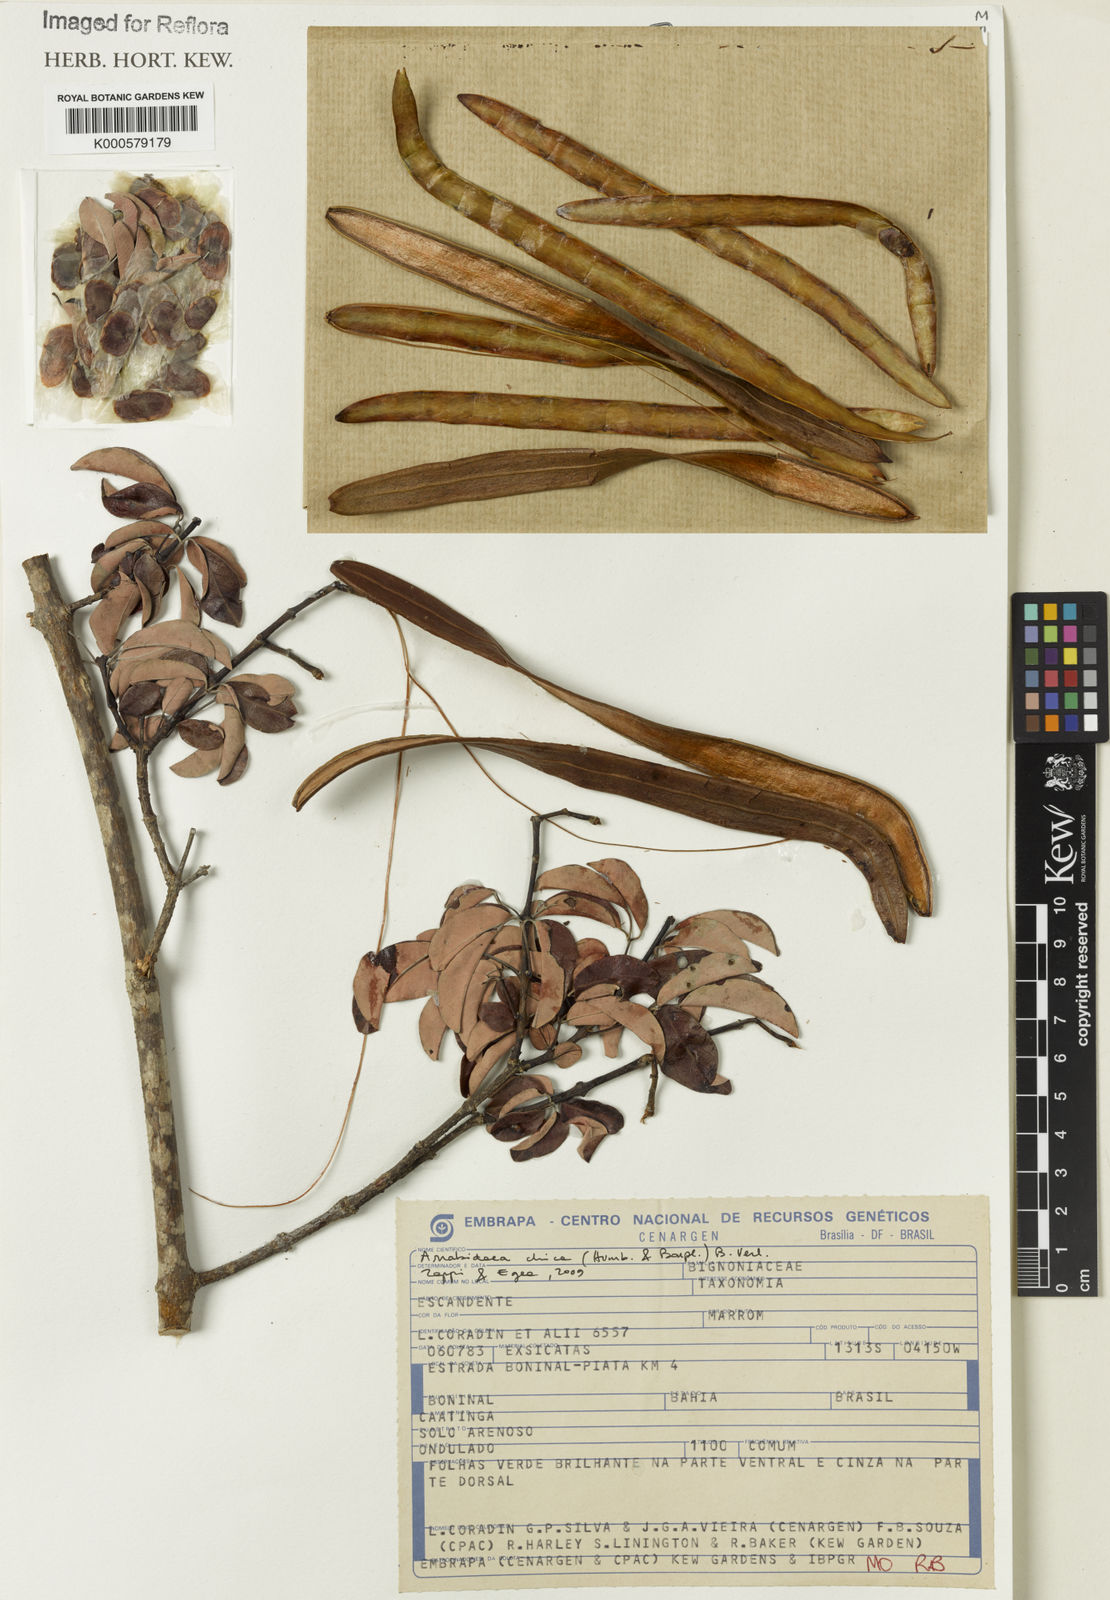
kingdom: Plantae
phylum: Tracheophyta
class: Magnoliopsida
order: Lamiales
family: Bignoniaceae
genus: Fridericia
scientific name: Fridericia chica
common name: Cricketvine
